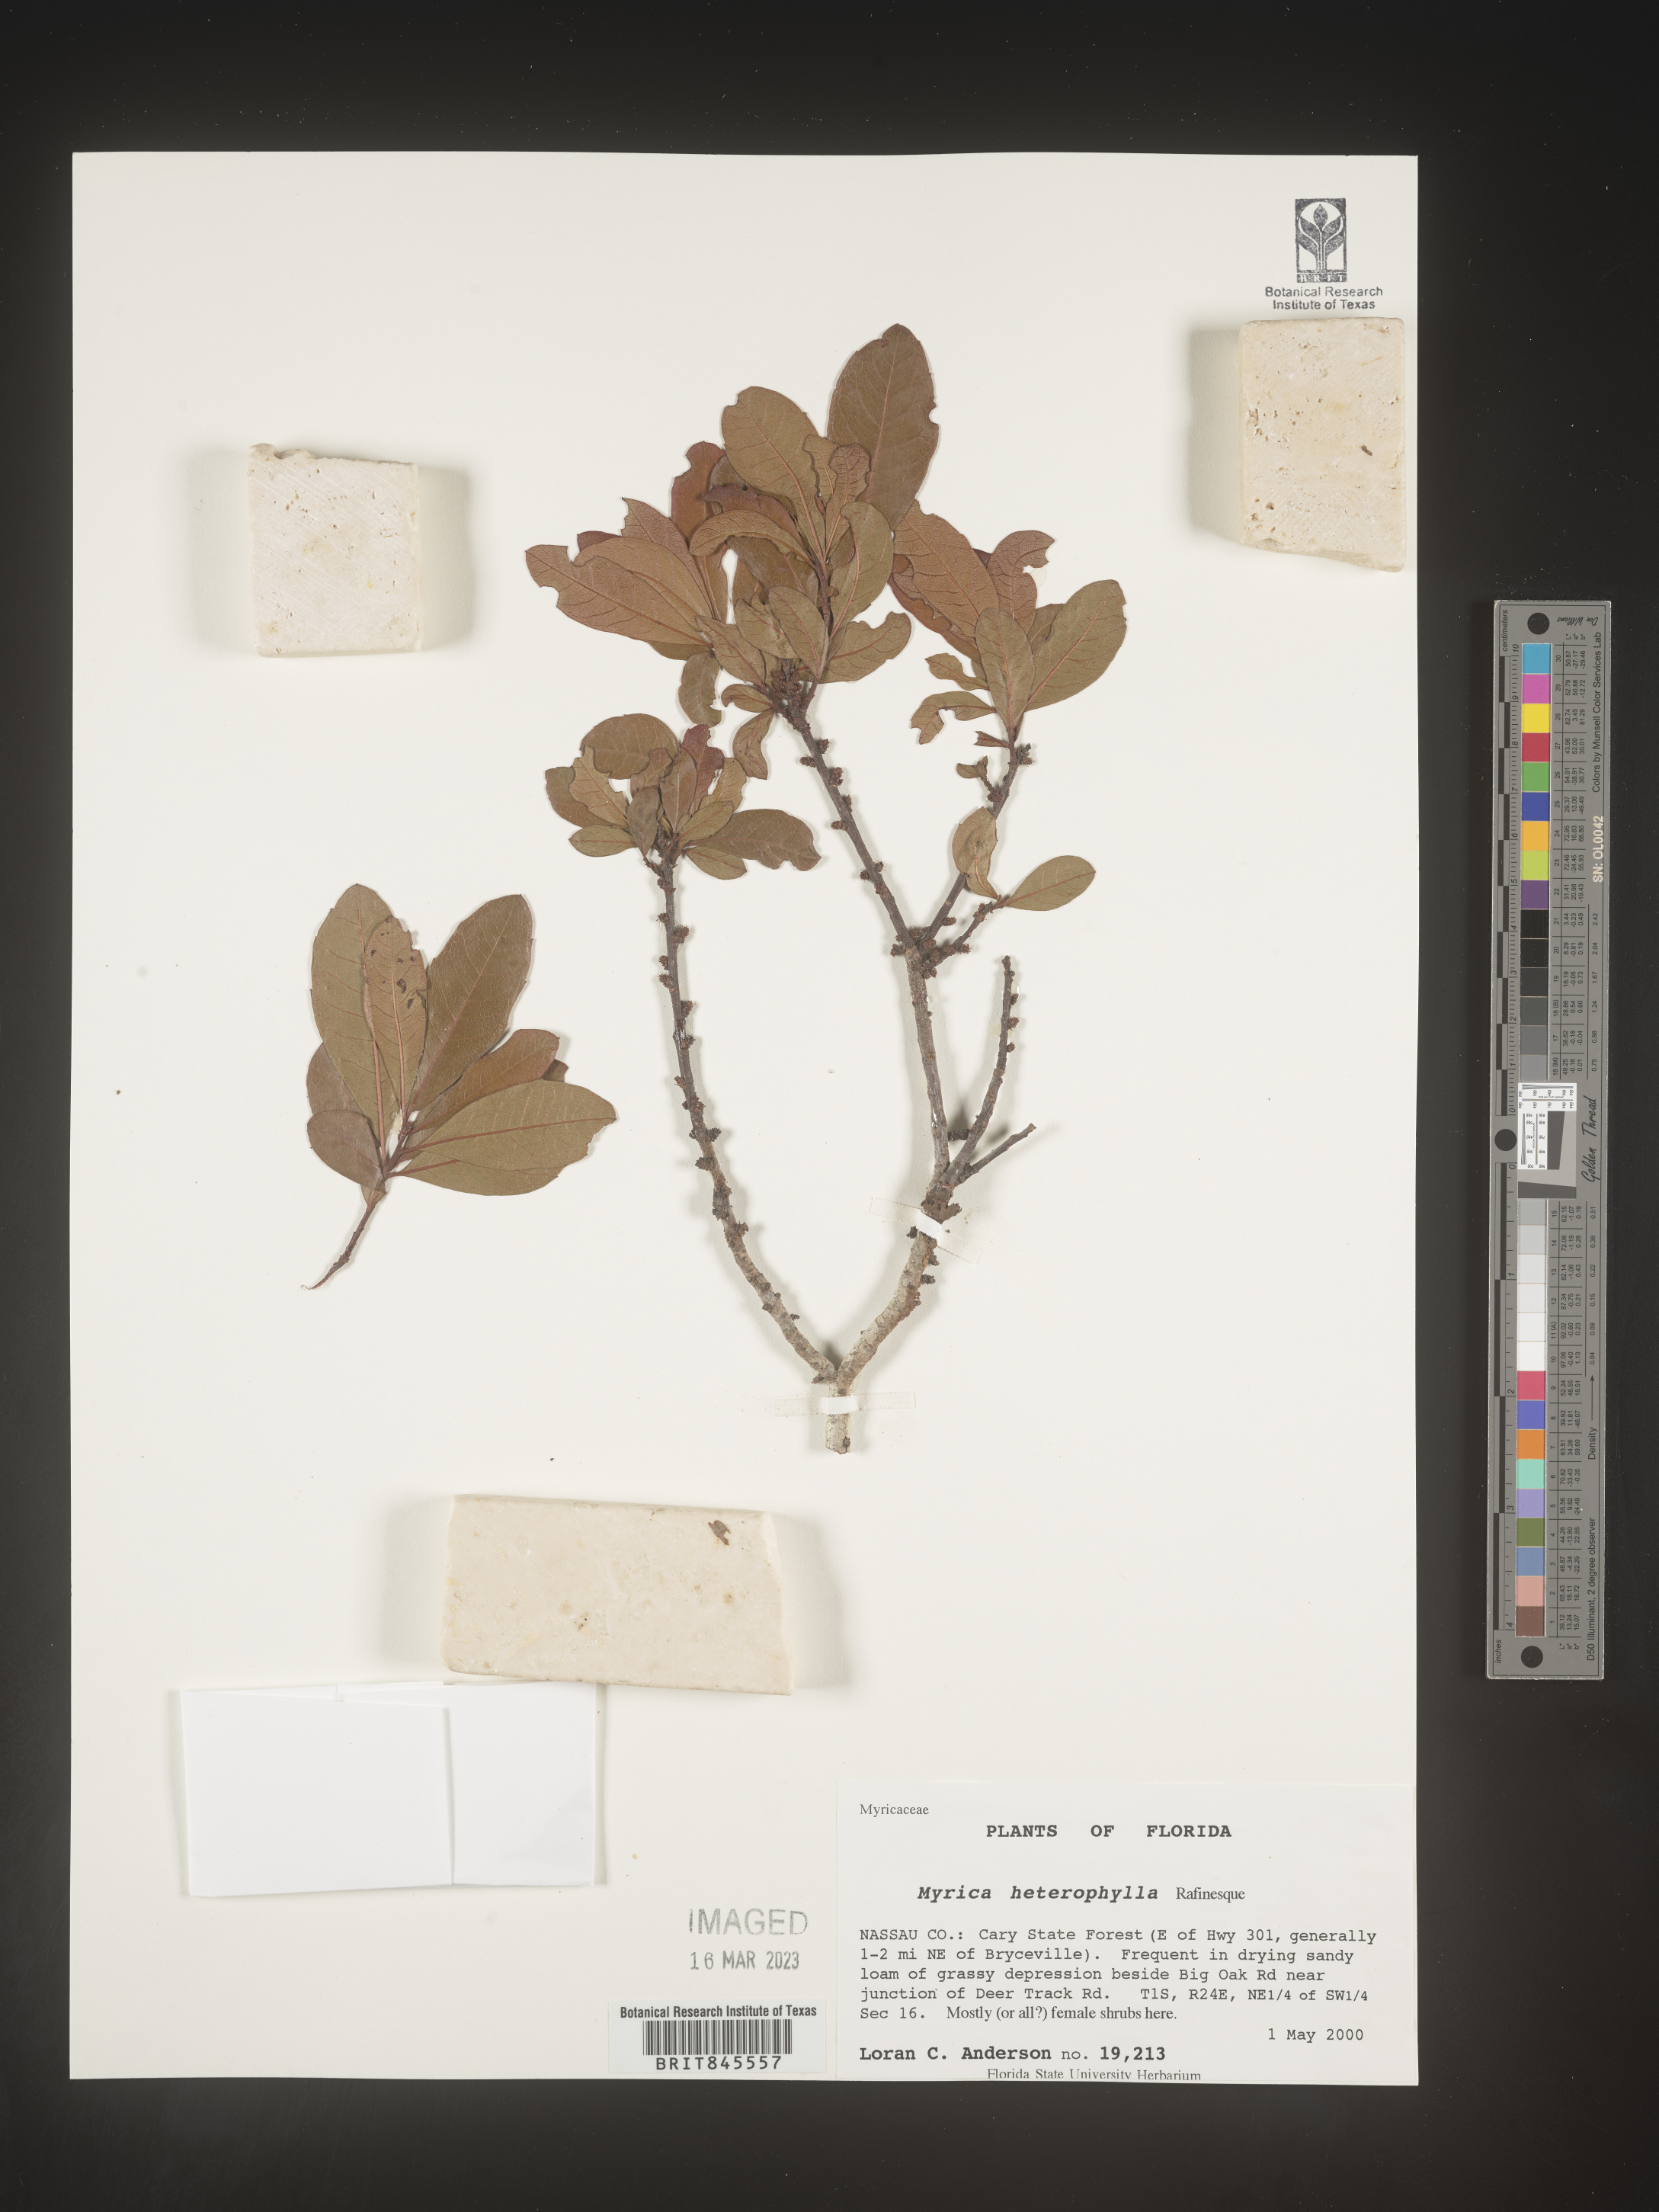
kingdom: Plantae
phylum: Tracheophyta
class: Magnoliopsida
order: Fagales
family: Myricaceae
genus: Morella
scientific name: Morella caroliniensis
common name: Evergreen bayberry
